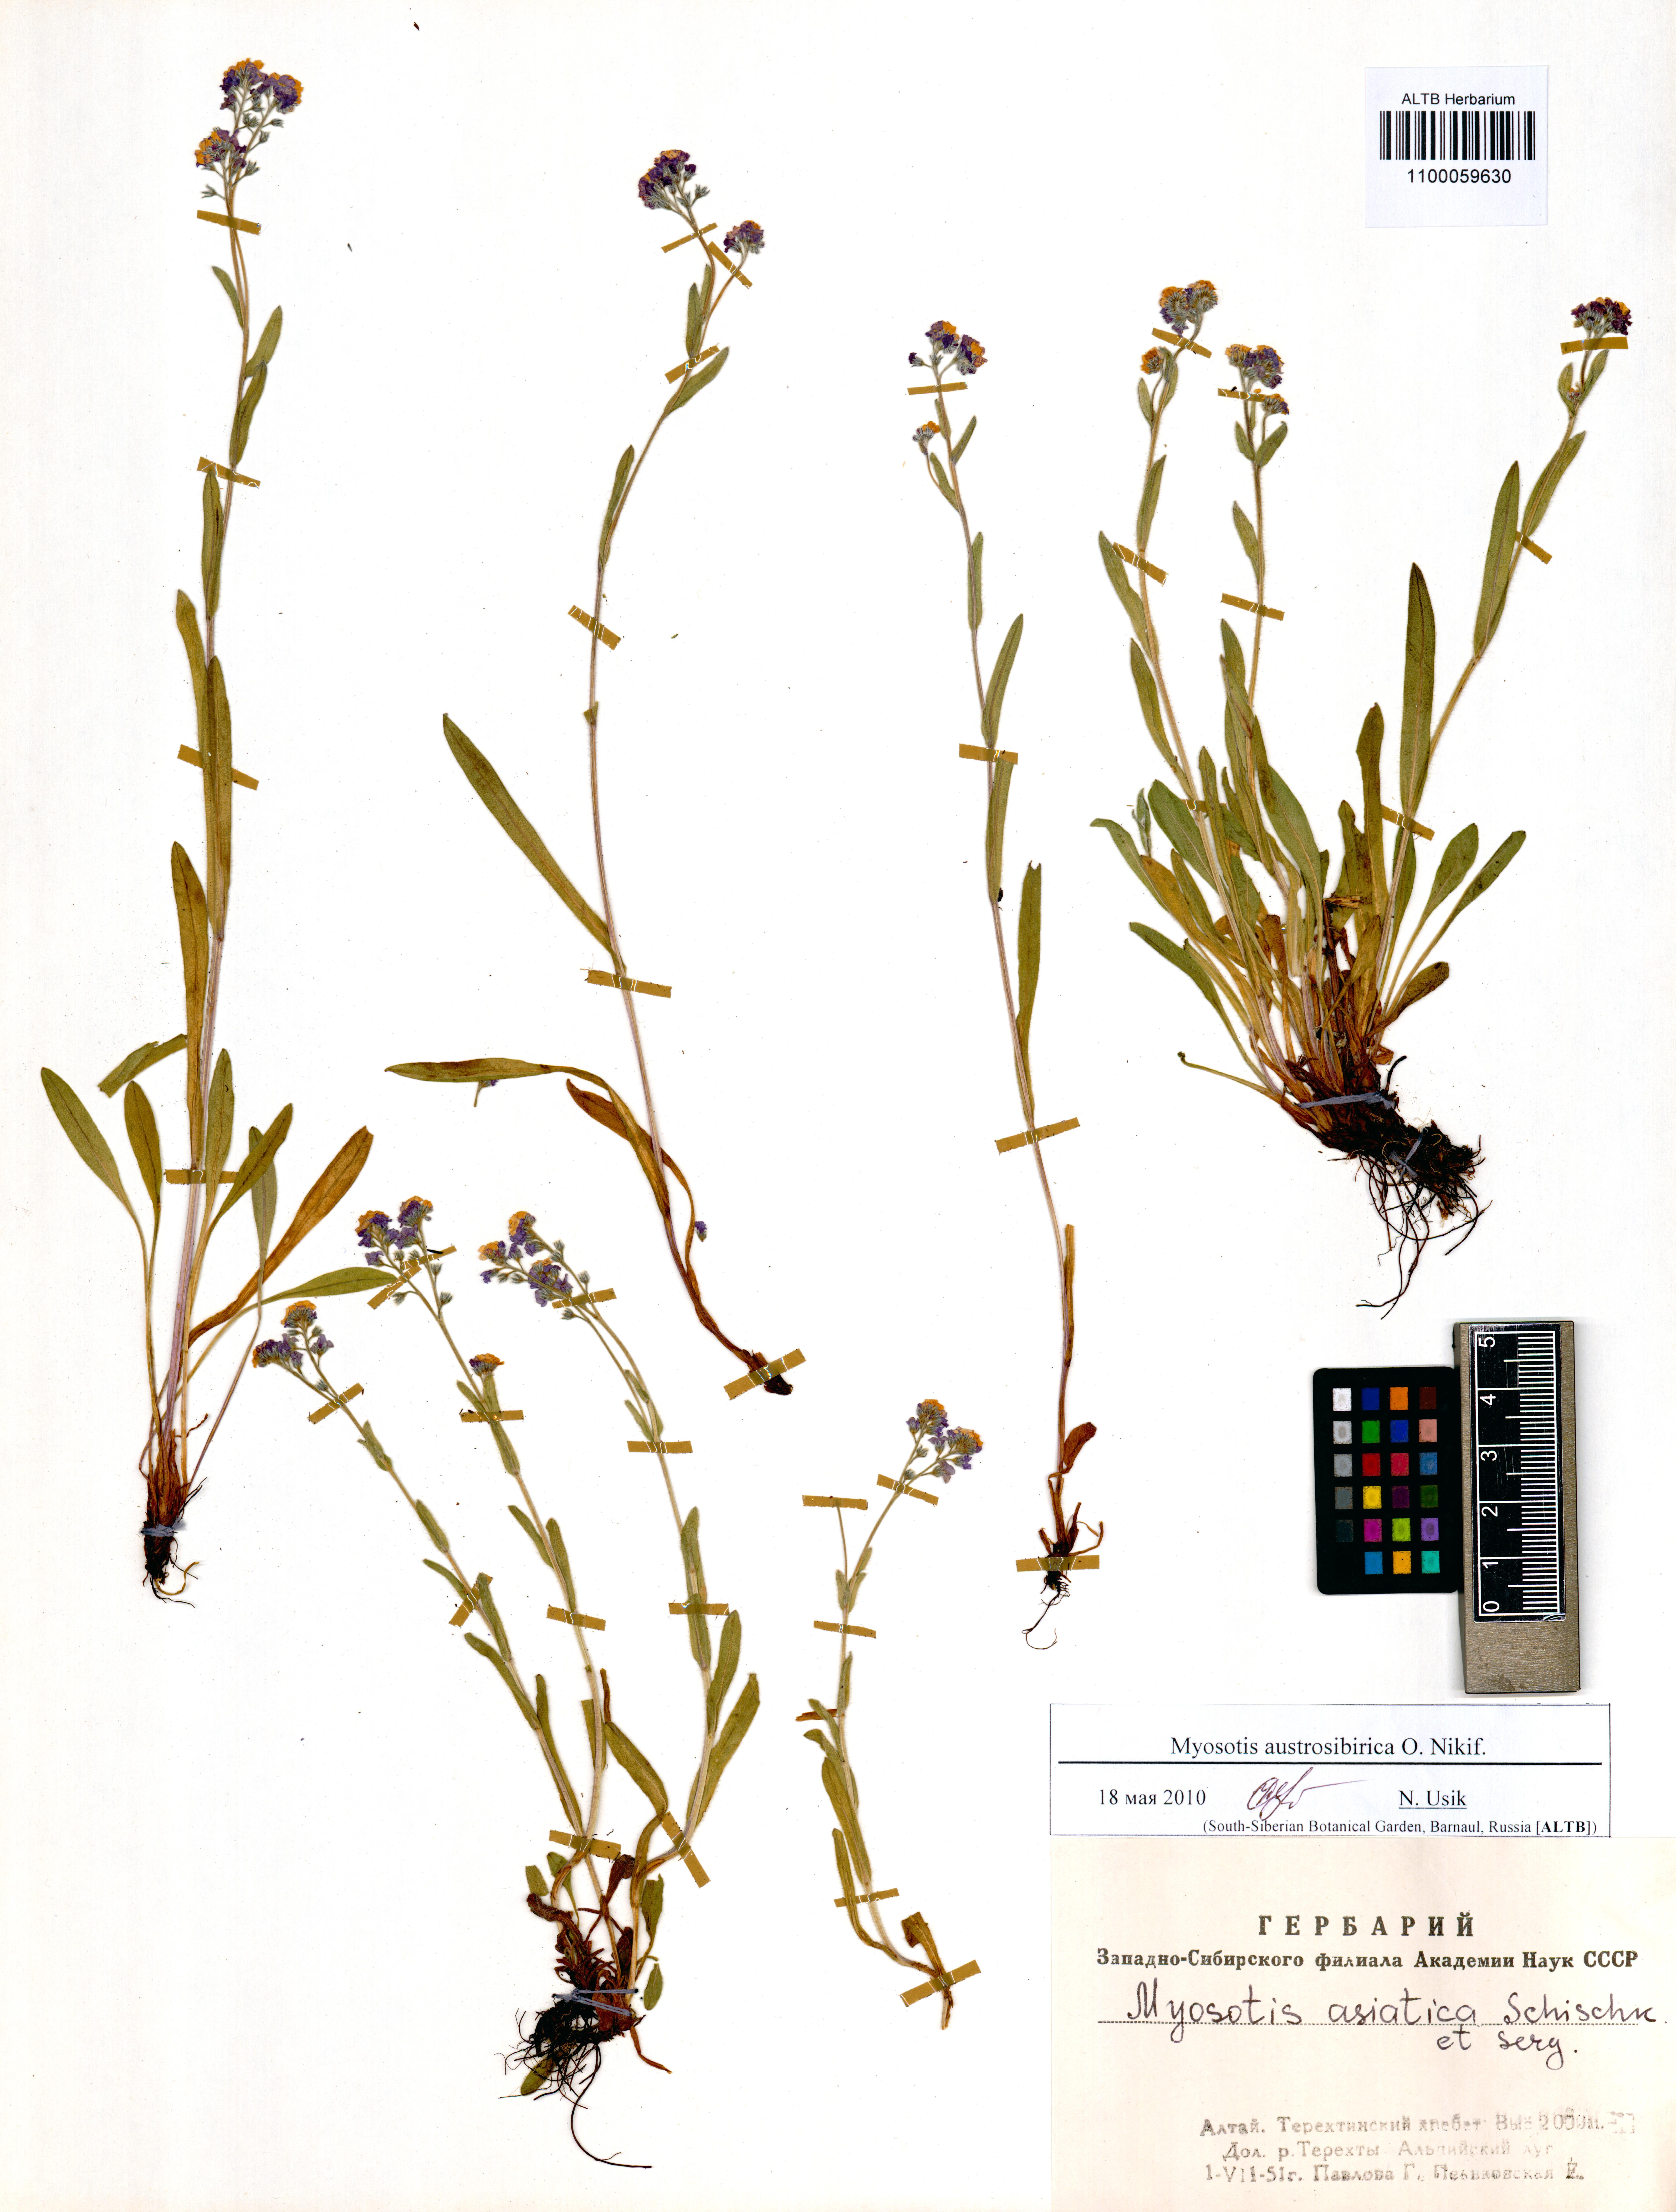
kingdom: Plantae
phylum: Tracheophyta
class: Magnoliopsida
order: Boraginales
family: Boraginaceae
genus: Myosotis
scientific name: Myosotis austrosibirica
